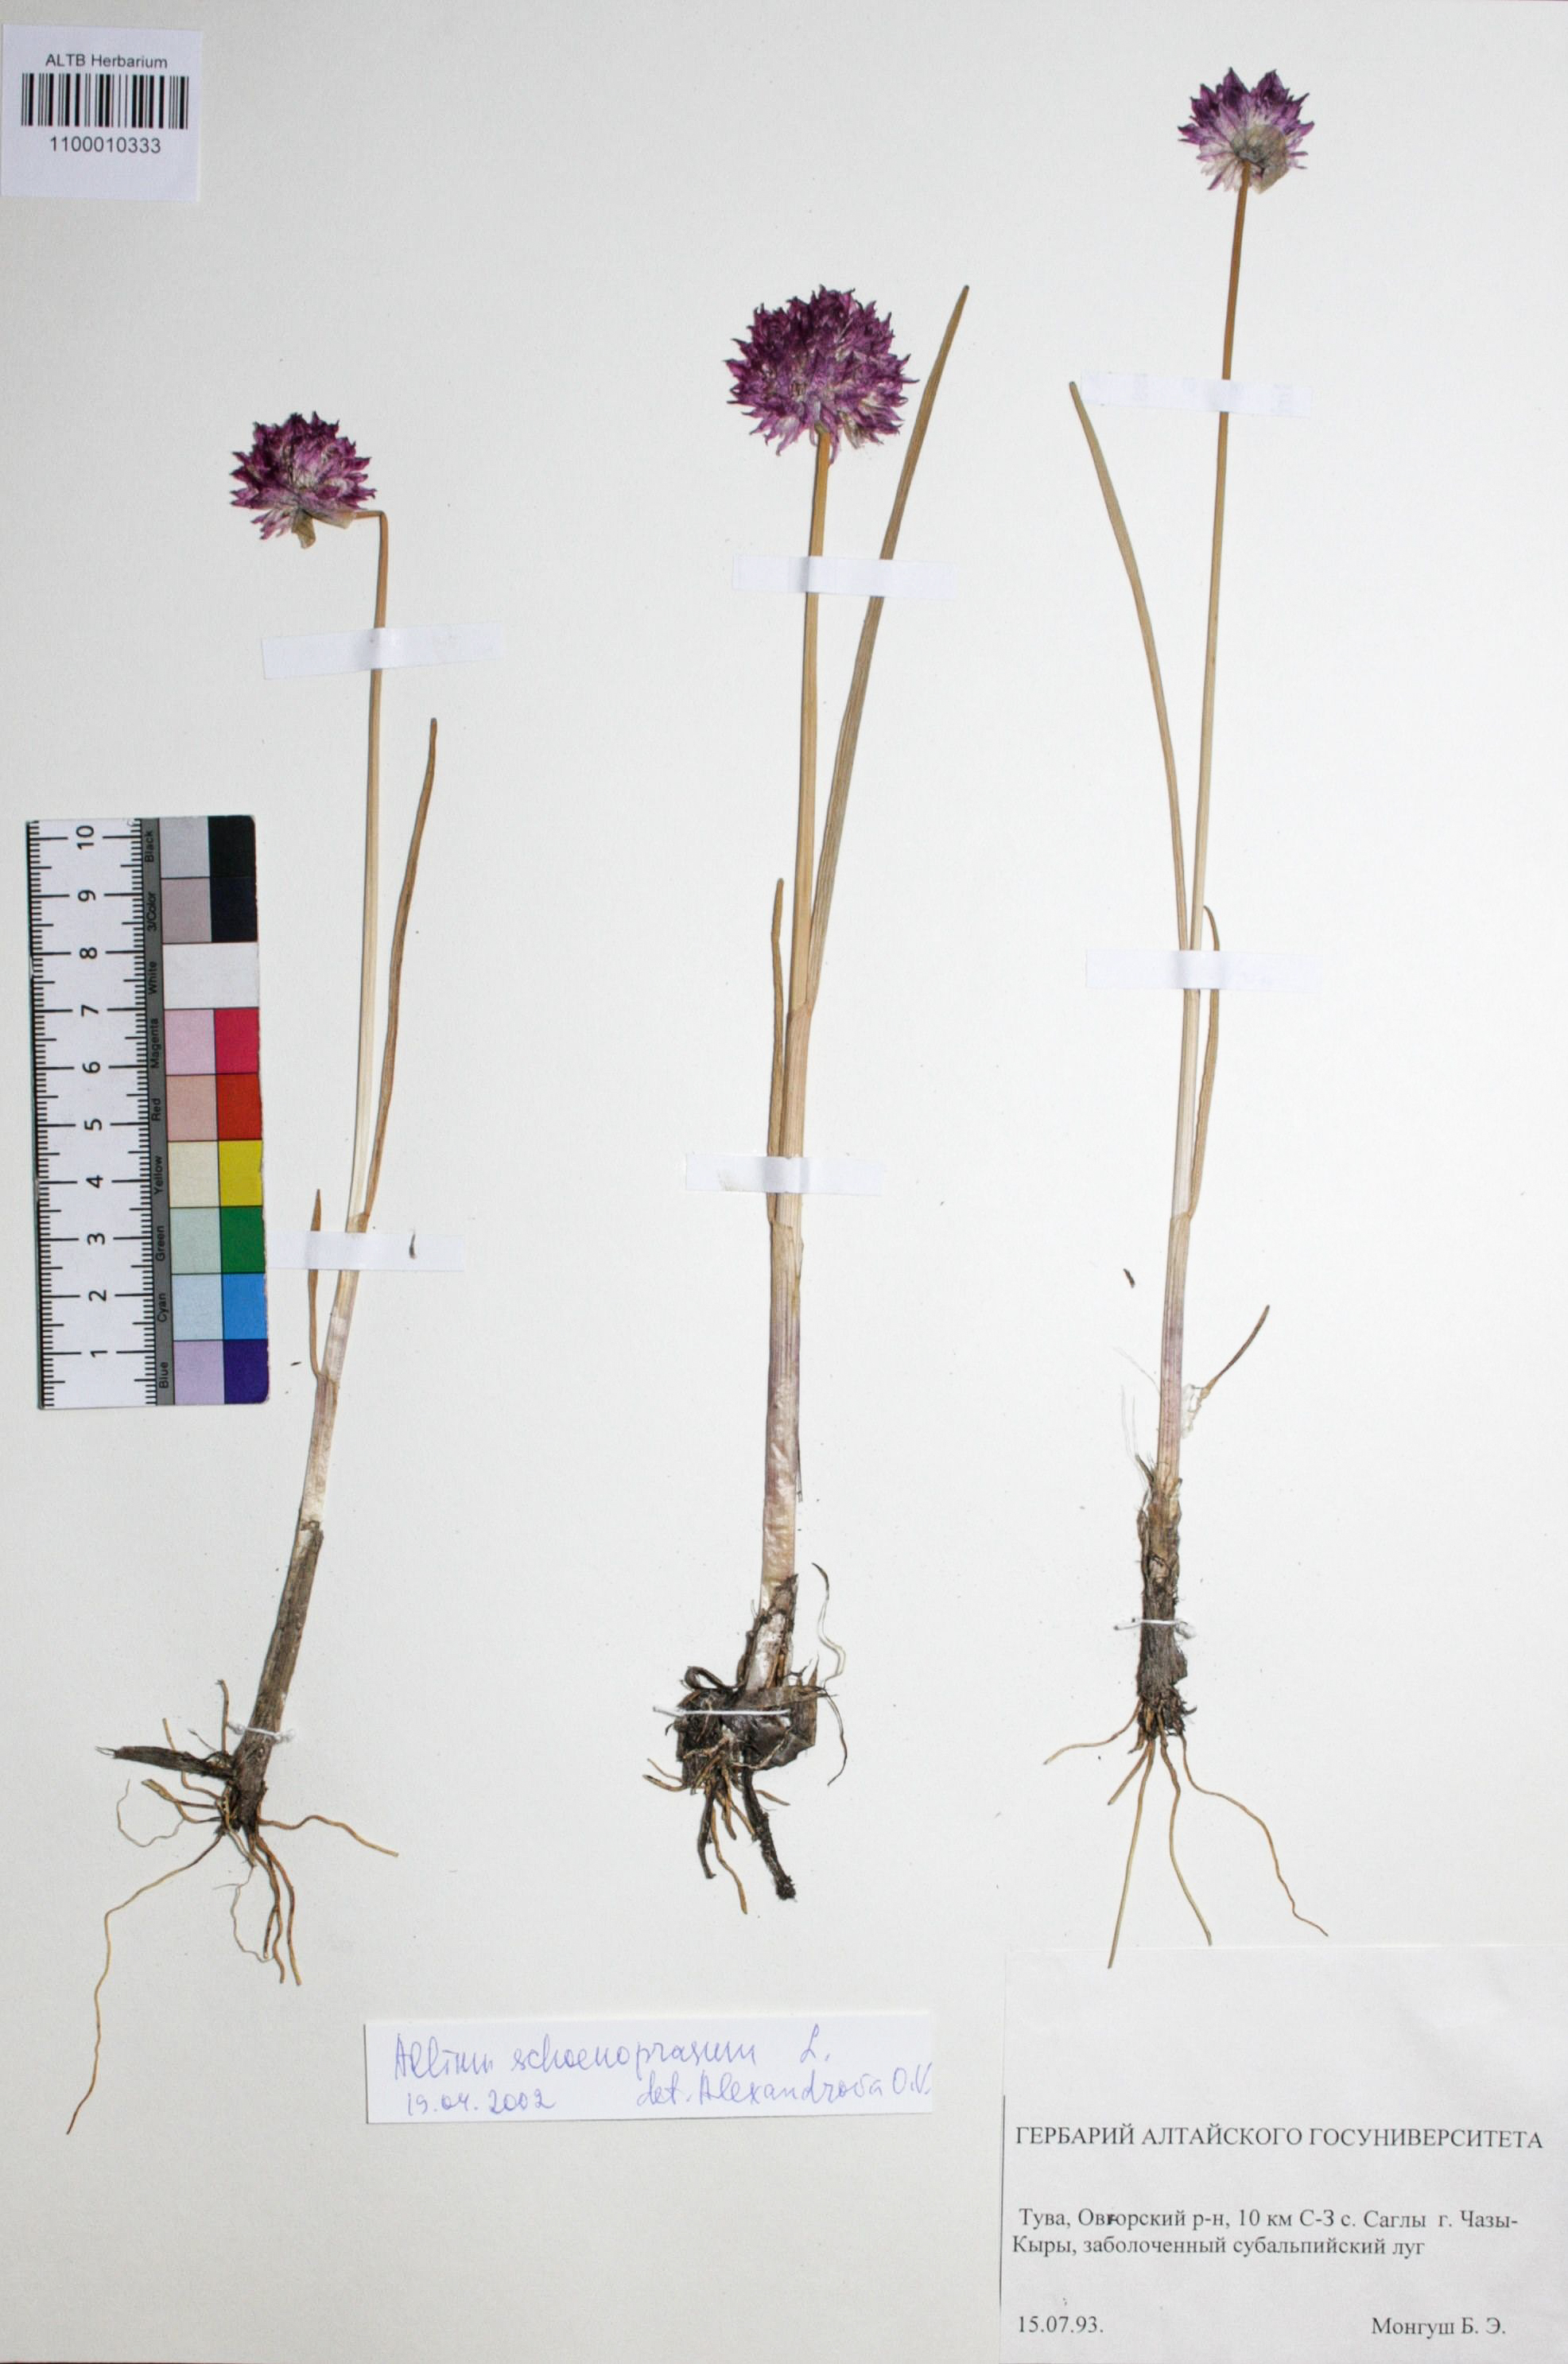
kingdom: Plantae
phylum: Tracheophyta
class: Liliopsida
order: Asparagales
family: Amaryllidaceae
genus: Allium
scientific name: Allium schoenoprasum
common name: Chives
